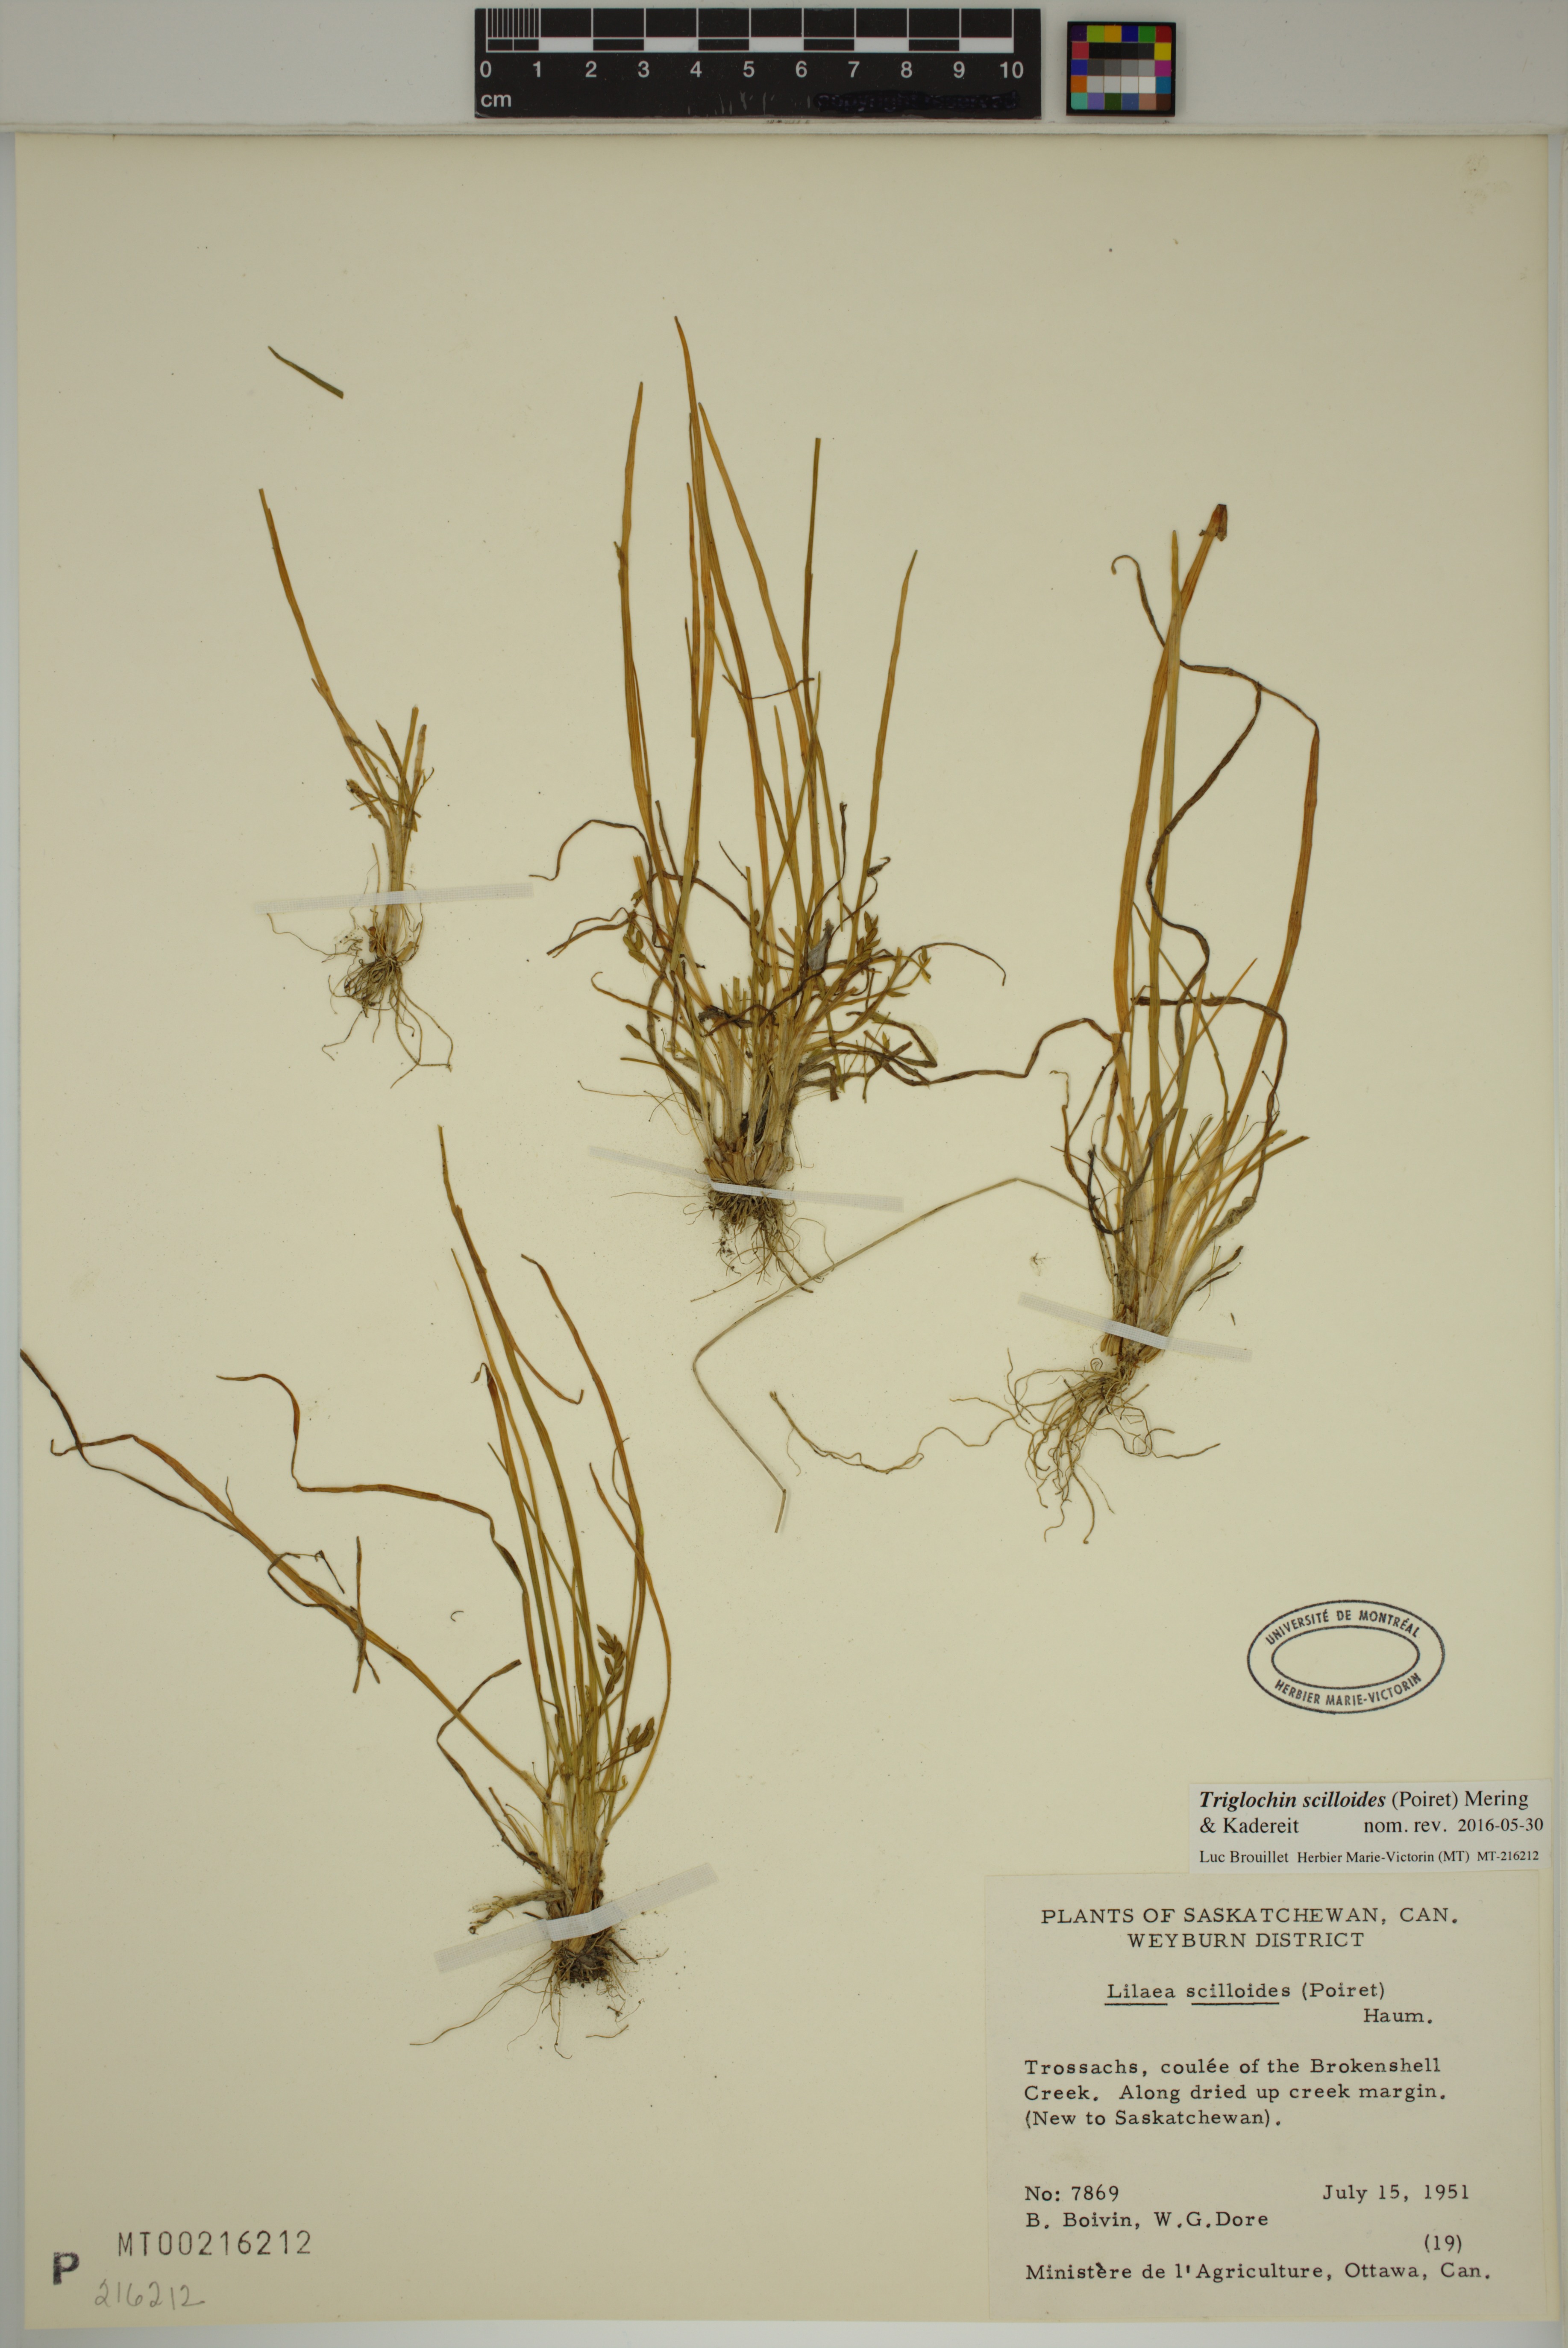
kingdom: Plantae
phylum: Tracheophyta
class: Liliopsida
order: Alismatales
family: Juncaginaceae
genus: Triglochin
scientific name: Triglochin scilloides
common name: Awl-leaved lilaea
